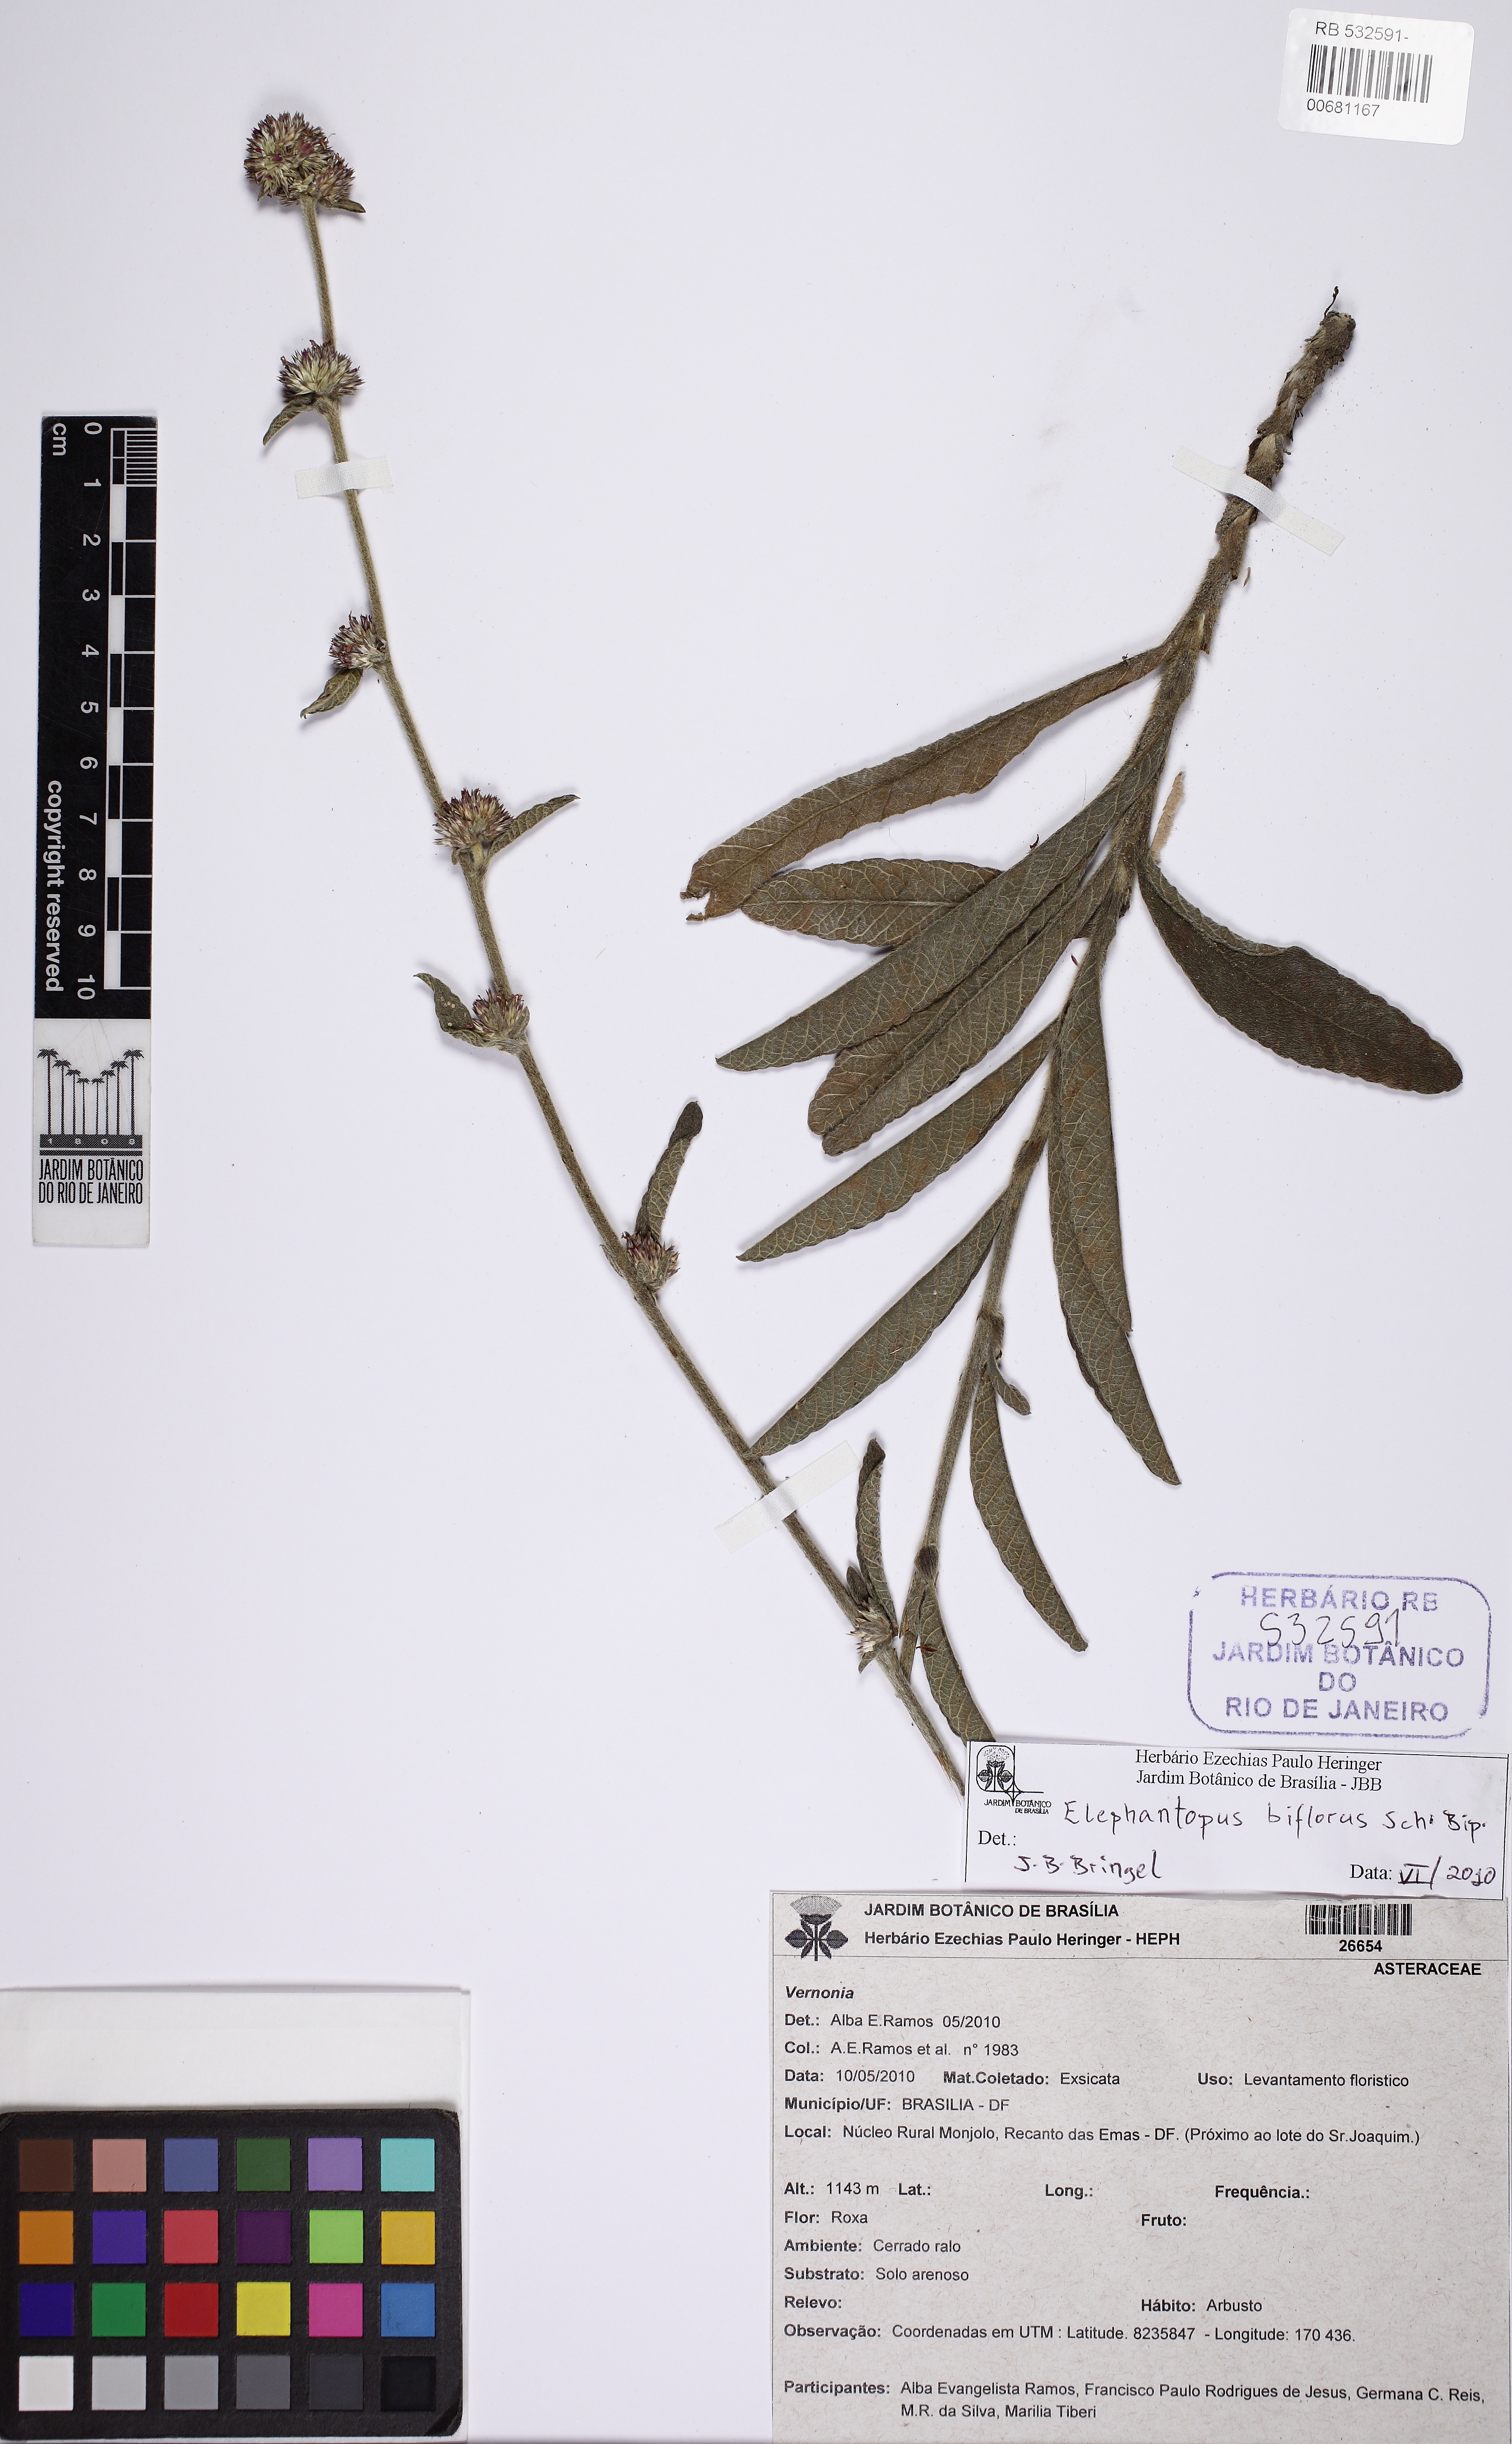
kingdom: Plantae
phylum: Tracheophyta
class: Magnoliopsida
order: Asterales
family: Asteraceae
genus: Elephantopus
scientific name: Elephantopus biflorus
